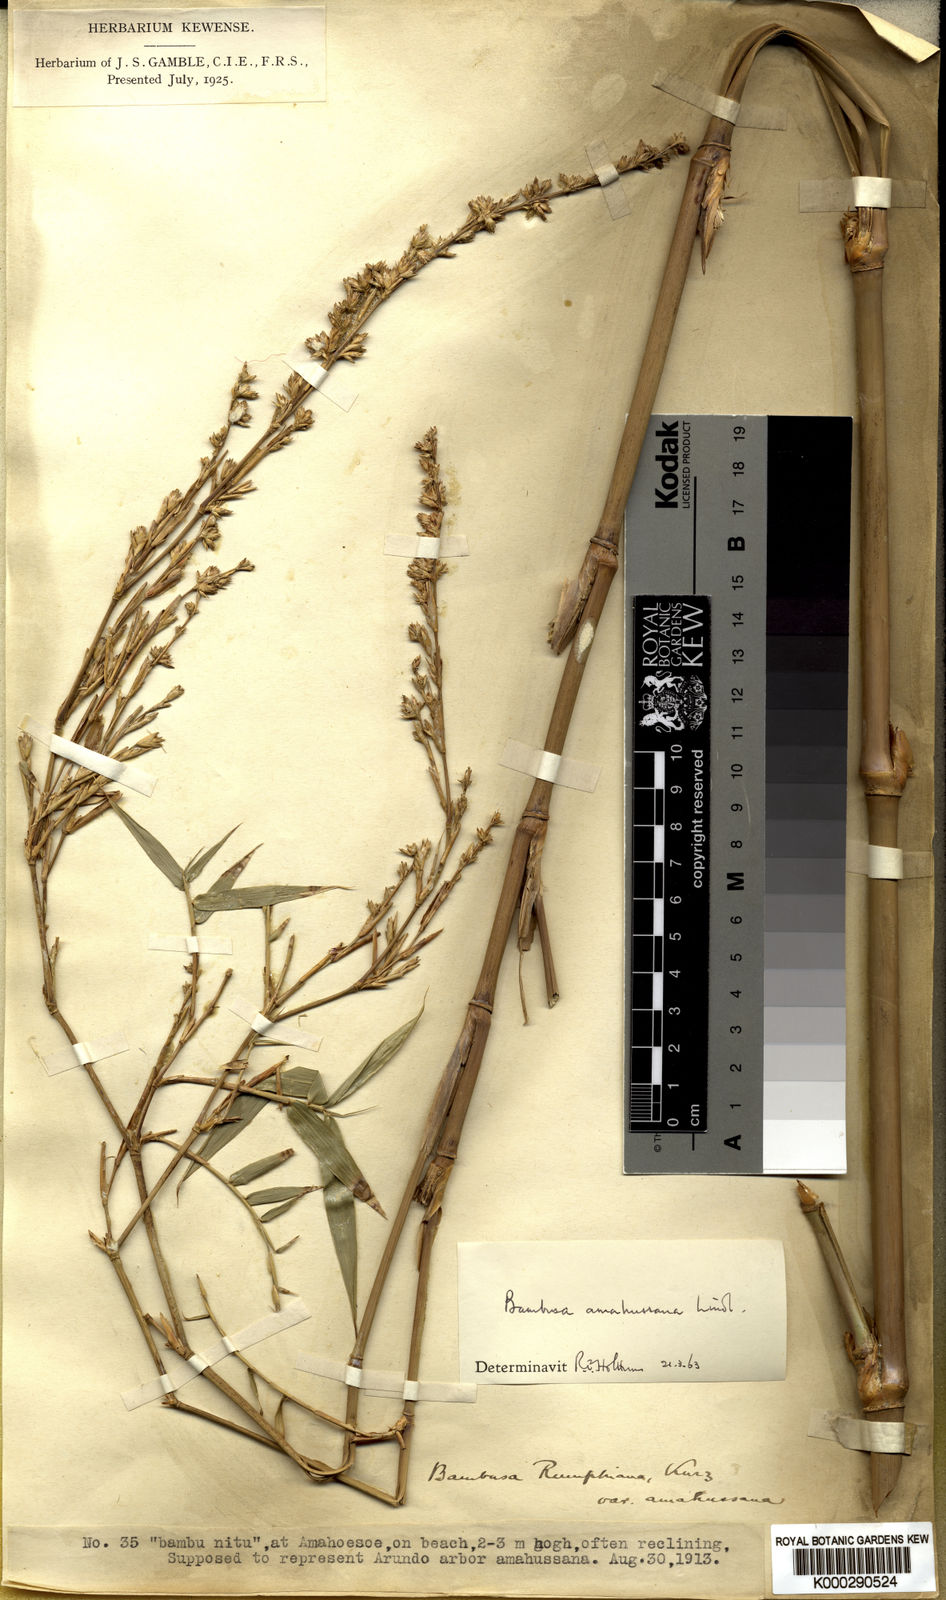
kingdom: Plantae
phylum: Tracheophyta
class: Liliopsida
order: Poales
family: Poaceae
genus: Neololeba
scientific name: Neololeba amahussana
